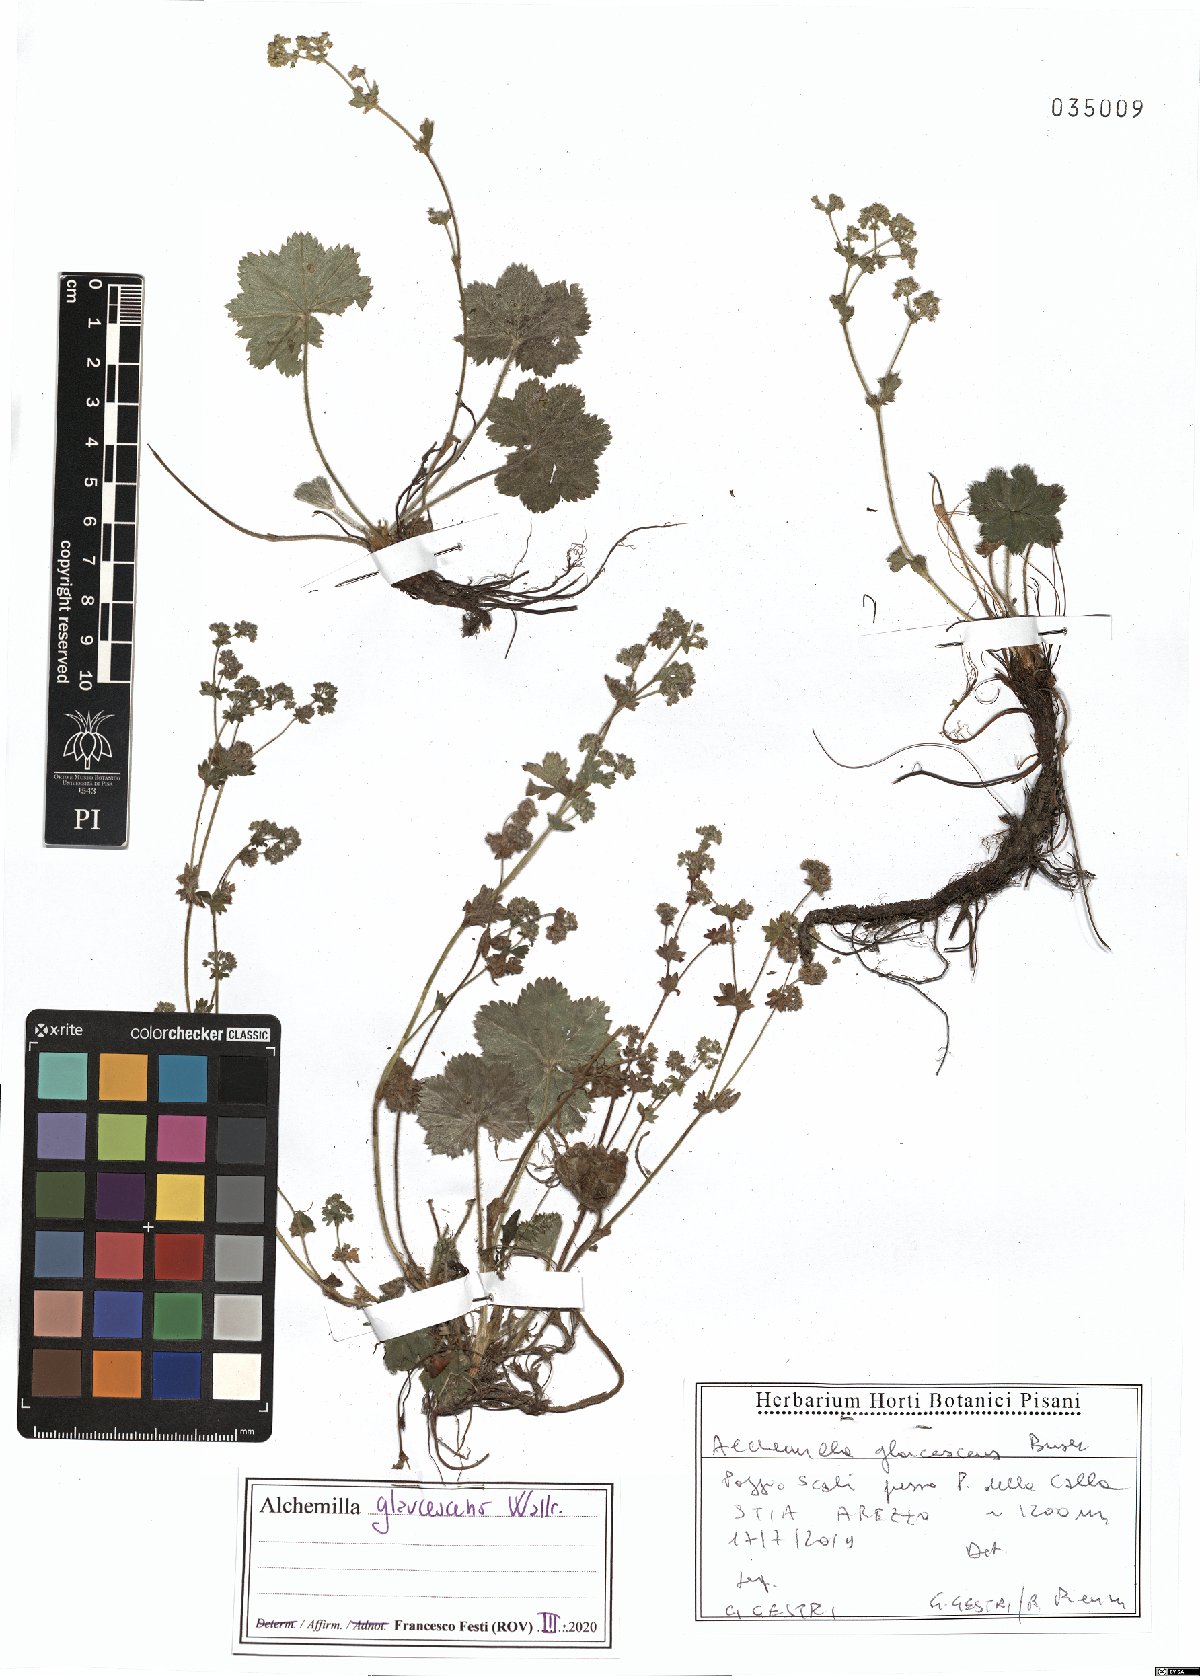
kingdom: Plantae
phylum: Tracheophyta
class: Magnoliopsida
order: Rosales
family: Rosaceae
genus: Alchemilla
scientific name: Alchemilla glaucescens
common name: Silky lady's mantle
